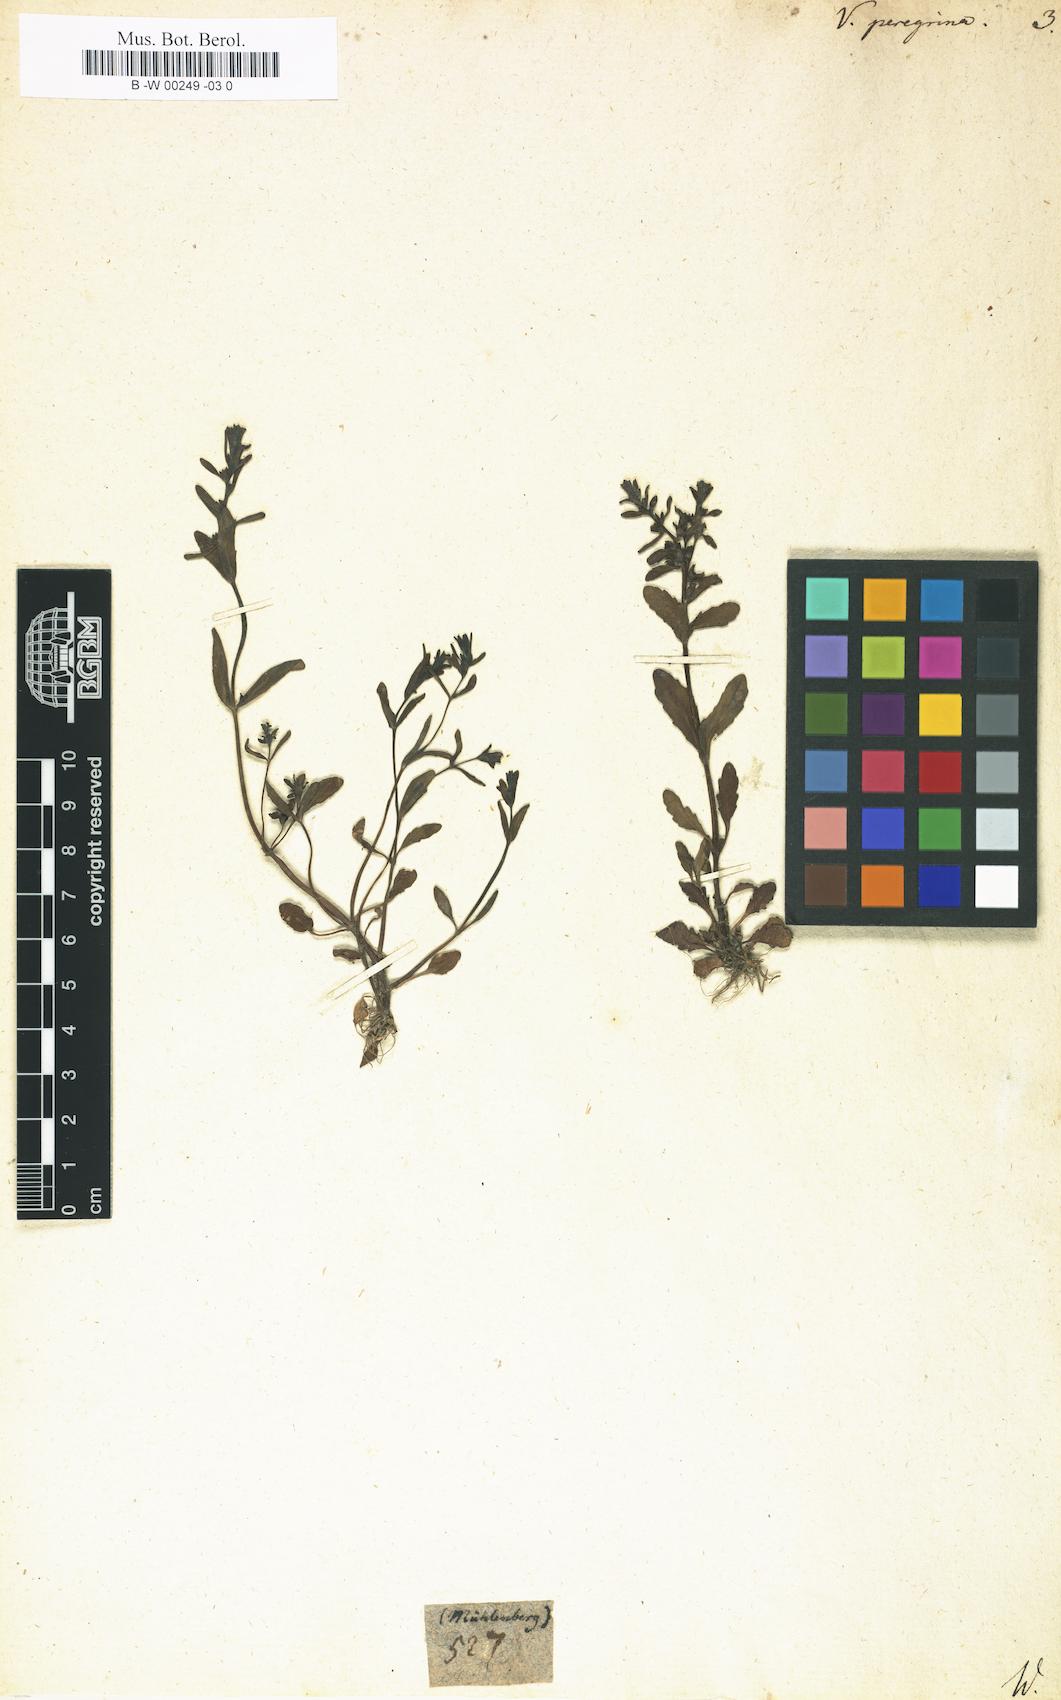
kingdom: Plantae
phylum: Tracheophyta
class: Magnoliopsida
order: Lamiales
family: Plantaginaceae
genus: Veronica
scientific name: Veronica peregrina
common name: Neckweed
